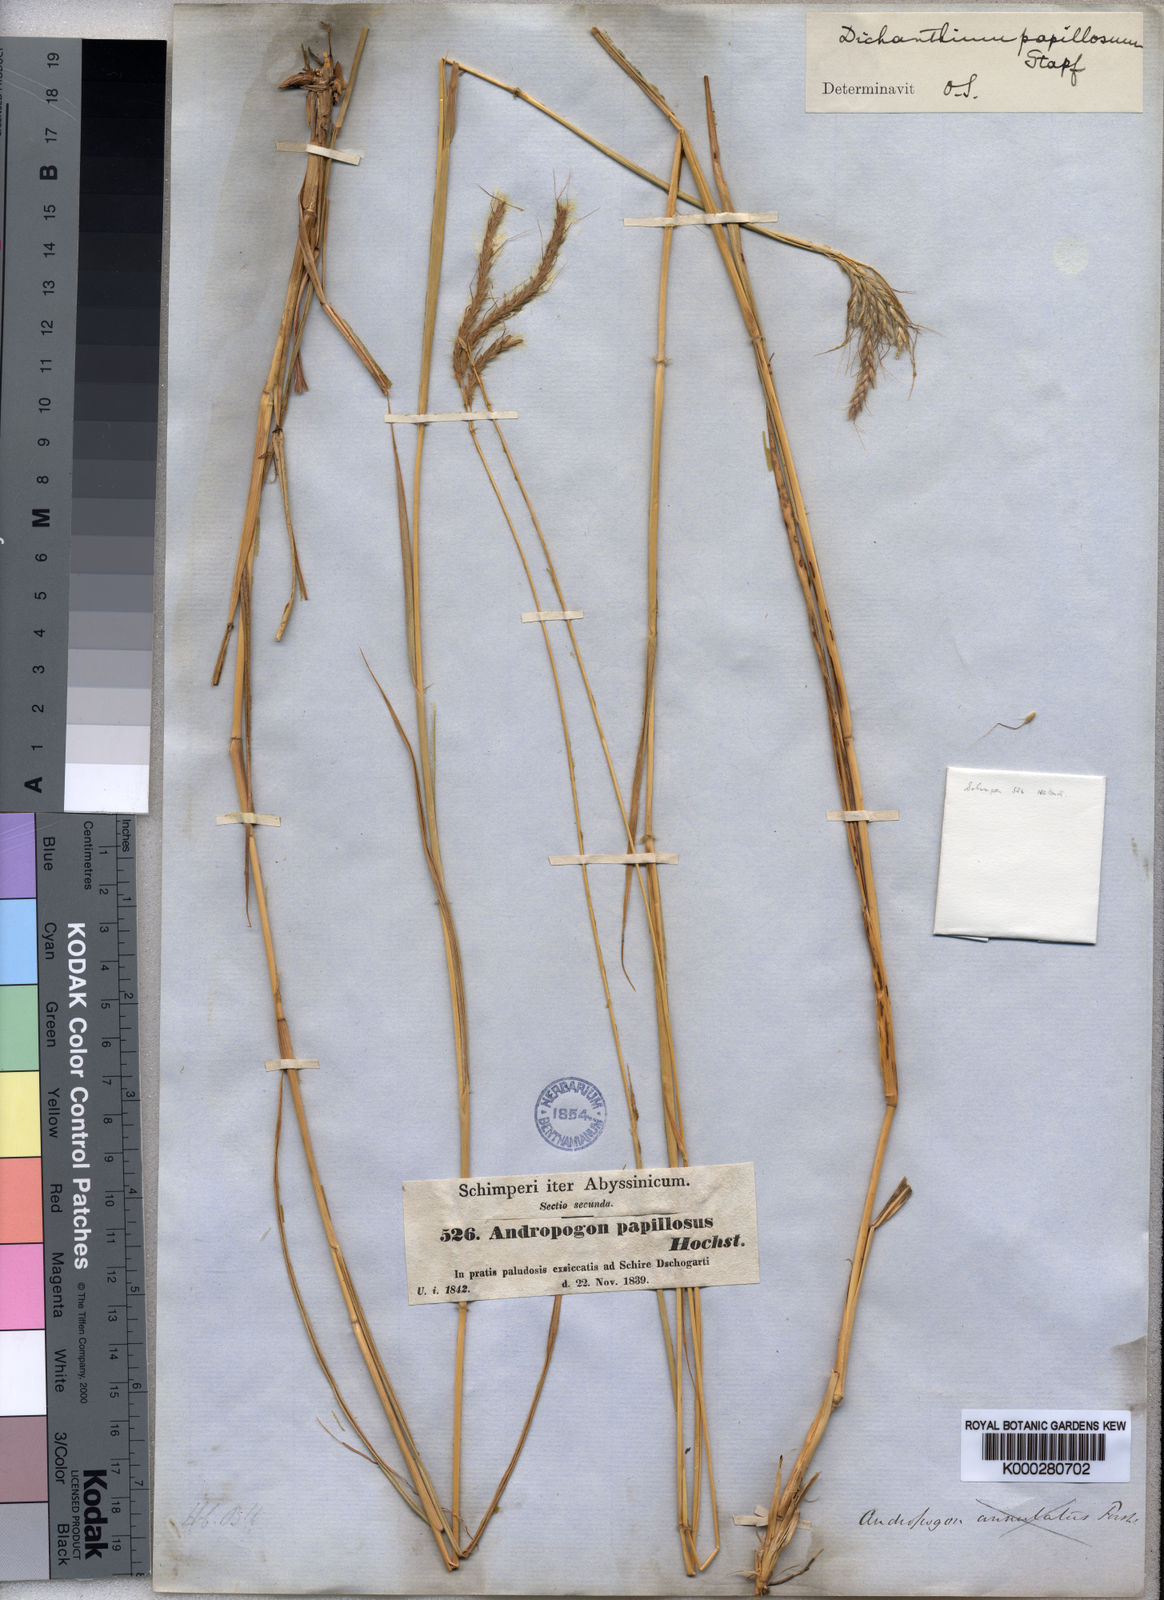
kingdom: Plantae
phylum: Tracheophyta
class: Liliopsida
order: Poales
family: Poaceae
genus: Dichanthium
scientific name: Dichanthium annulatum
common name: Kleberg's bluestem
